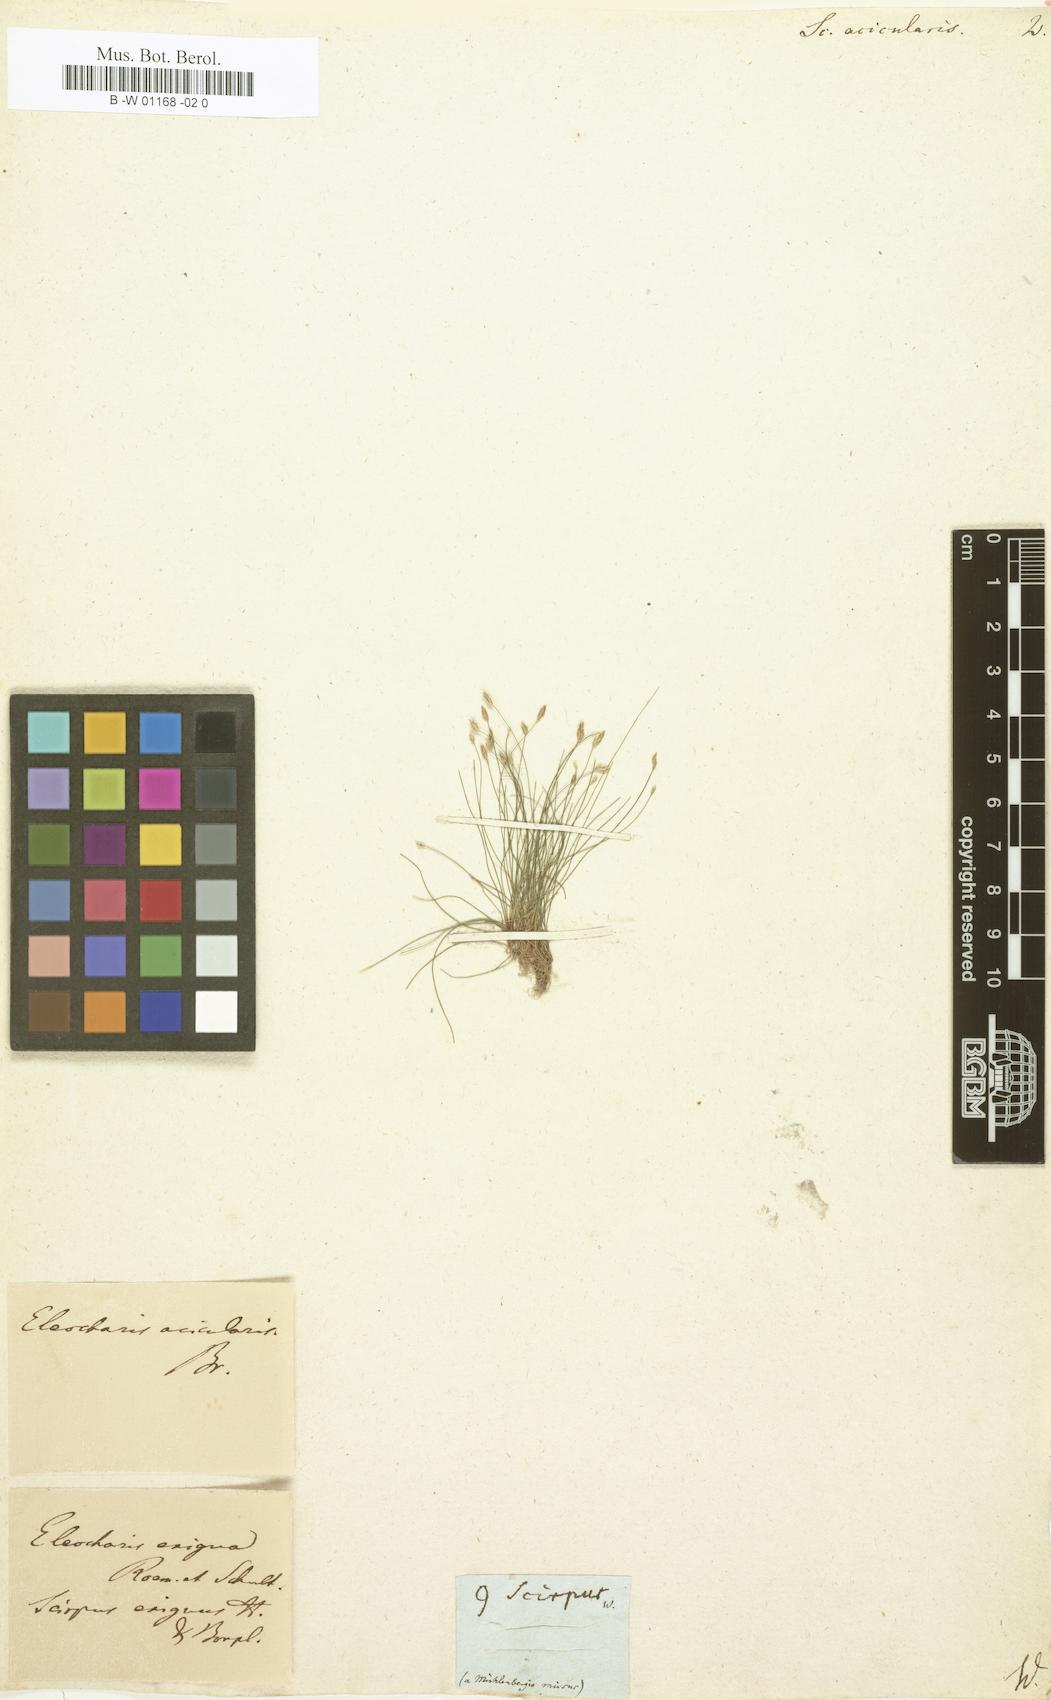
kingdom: Plantae
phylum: Tracheophyta
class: Liliopsida
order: Poales
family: Cyperaceae
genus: Scirpus
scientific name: Scirpus acicularis
